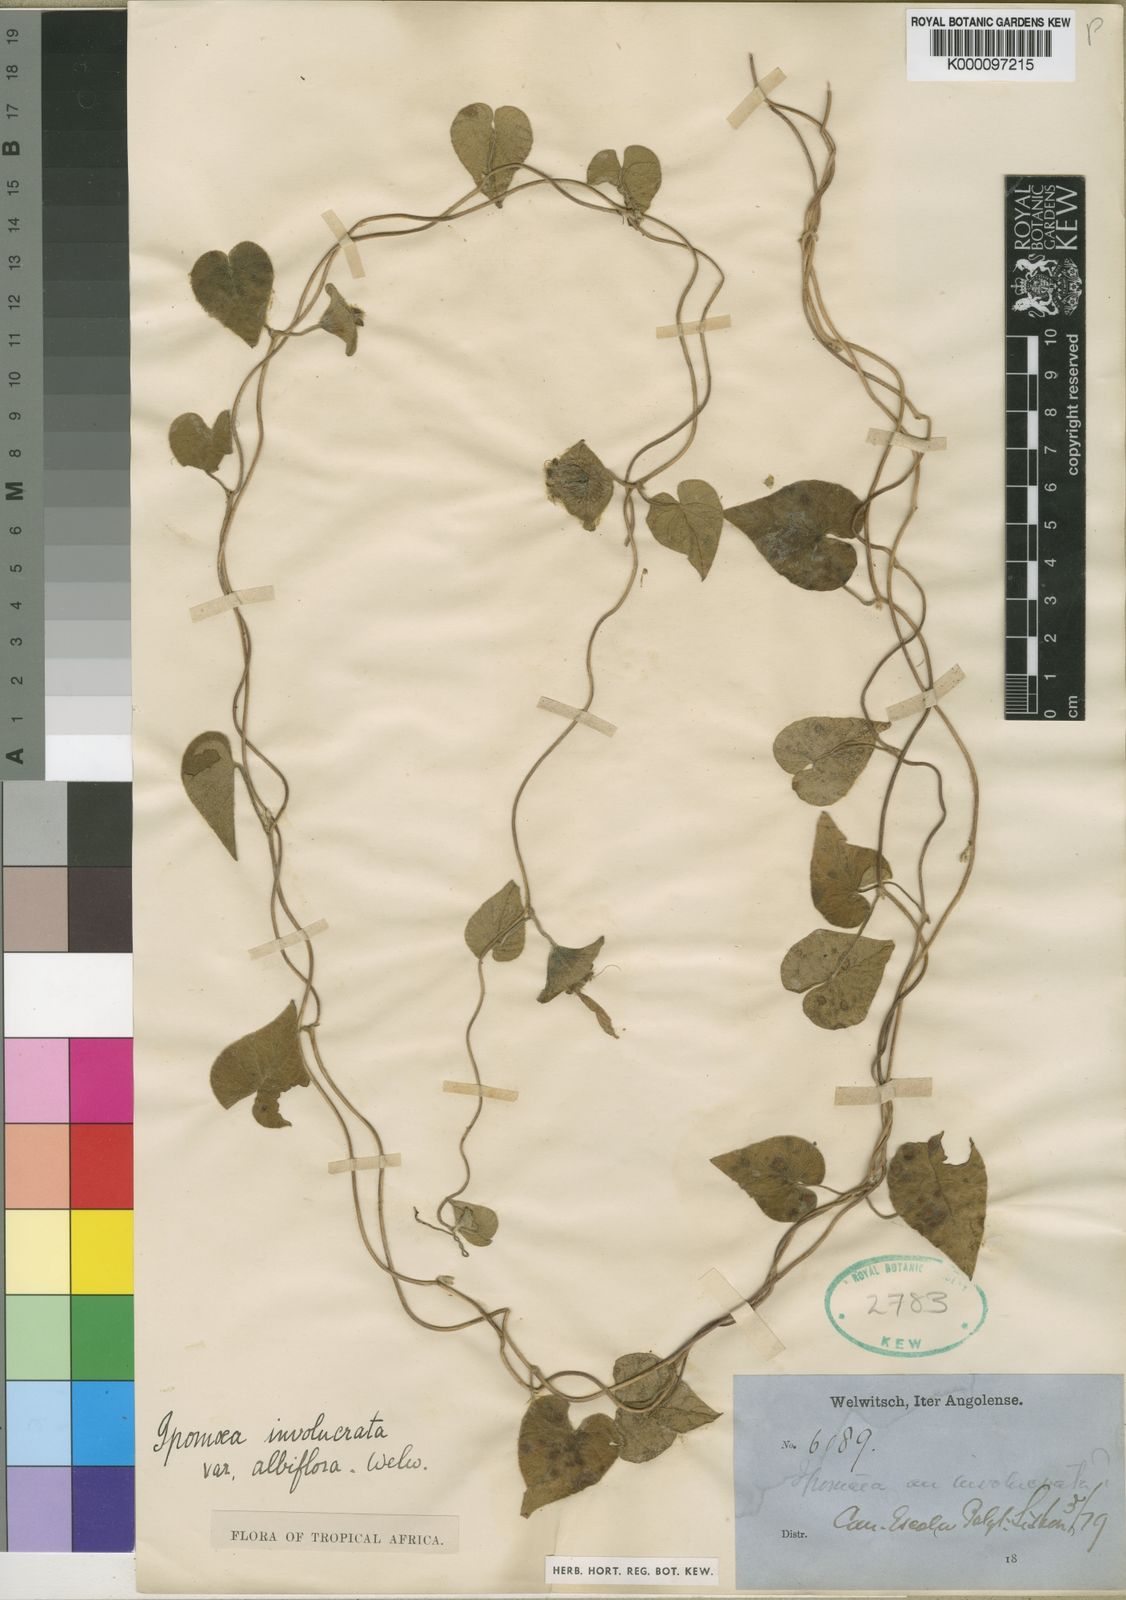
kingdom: Plantae
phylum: Tracheophyta
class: Magnoliopsida
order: Solanales
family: Convolvulaceae
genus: Ipomoea
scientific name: Ipomoea pileata
